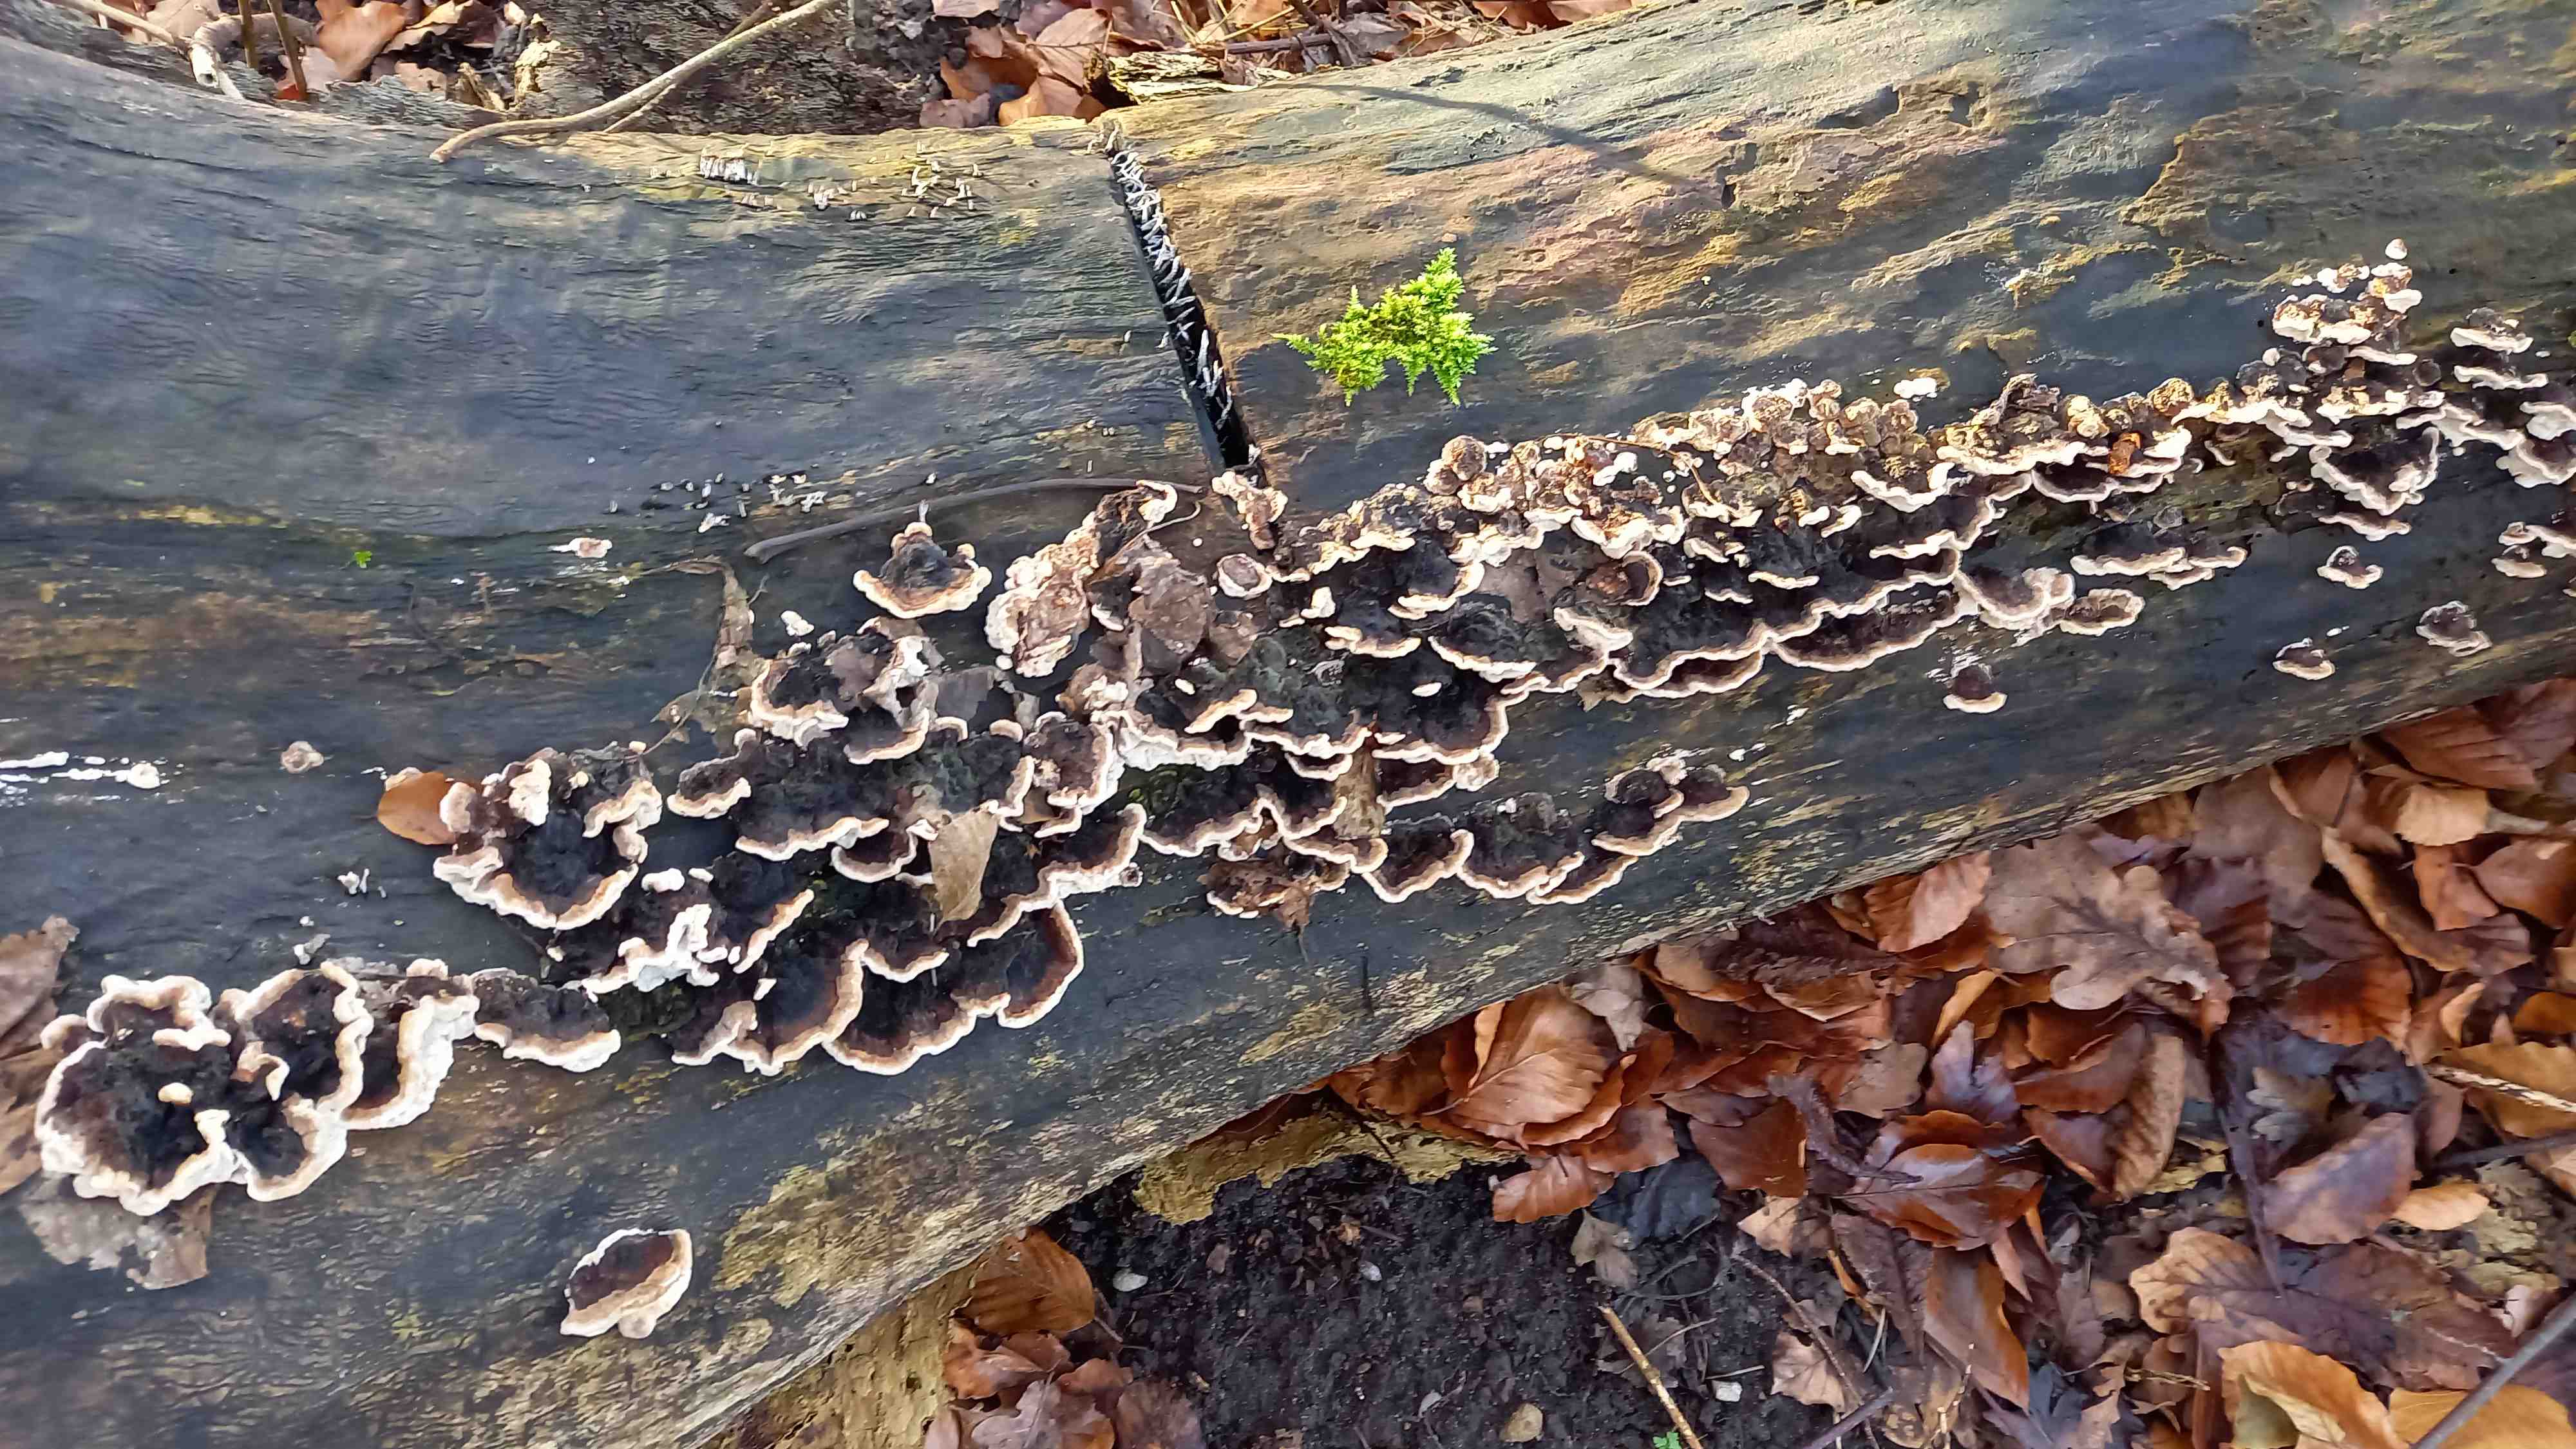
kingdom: Fungi
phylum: Basidiomycota
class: Agaricomycetes
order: Polyporales
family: Polyporaceae
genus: Trametes
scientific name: Trametes versicolor
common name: broget læderporesvamp
